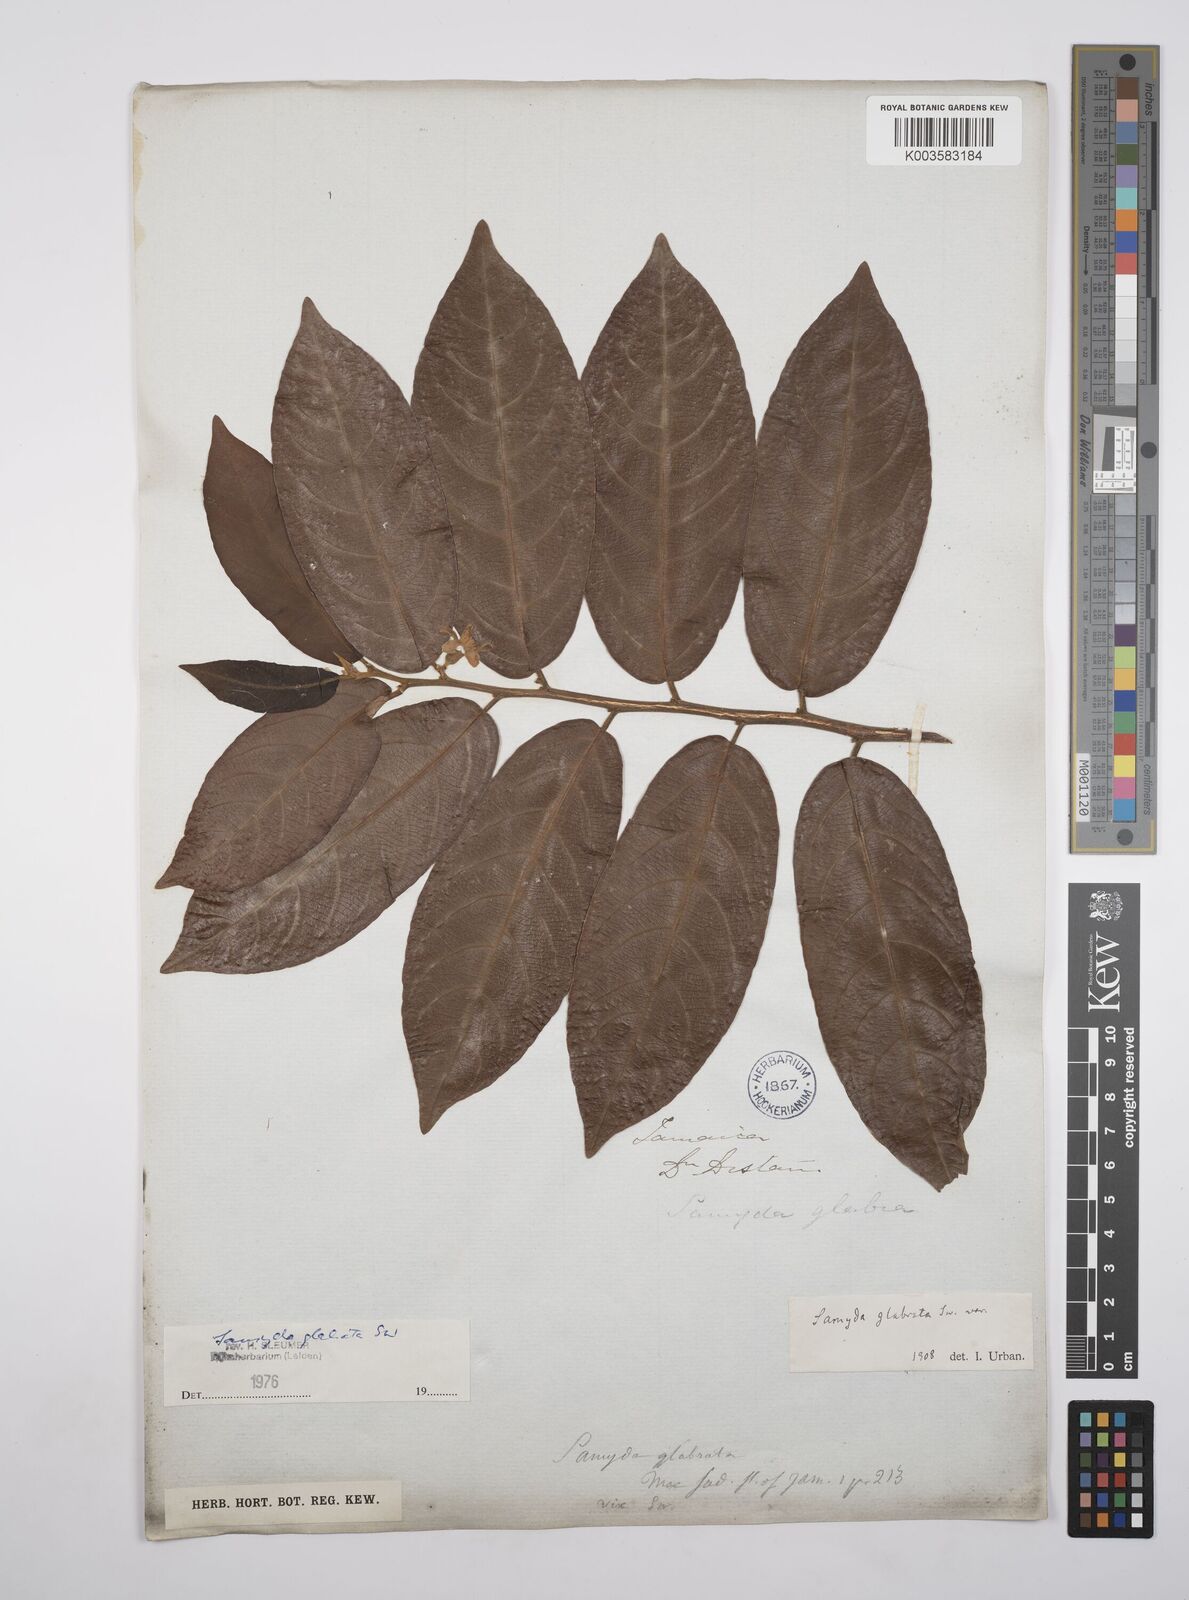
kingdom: Plantae
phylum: Tracheophyta
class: Magnoliopsida
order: Malpighiales
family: Salicaceae
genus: Casearia
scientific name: Casearia kigeri
